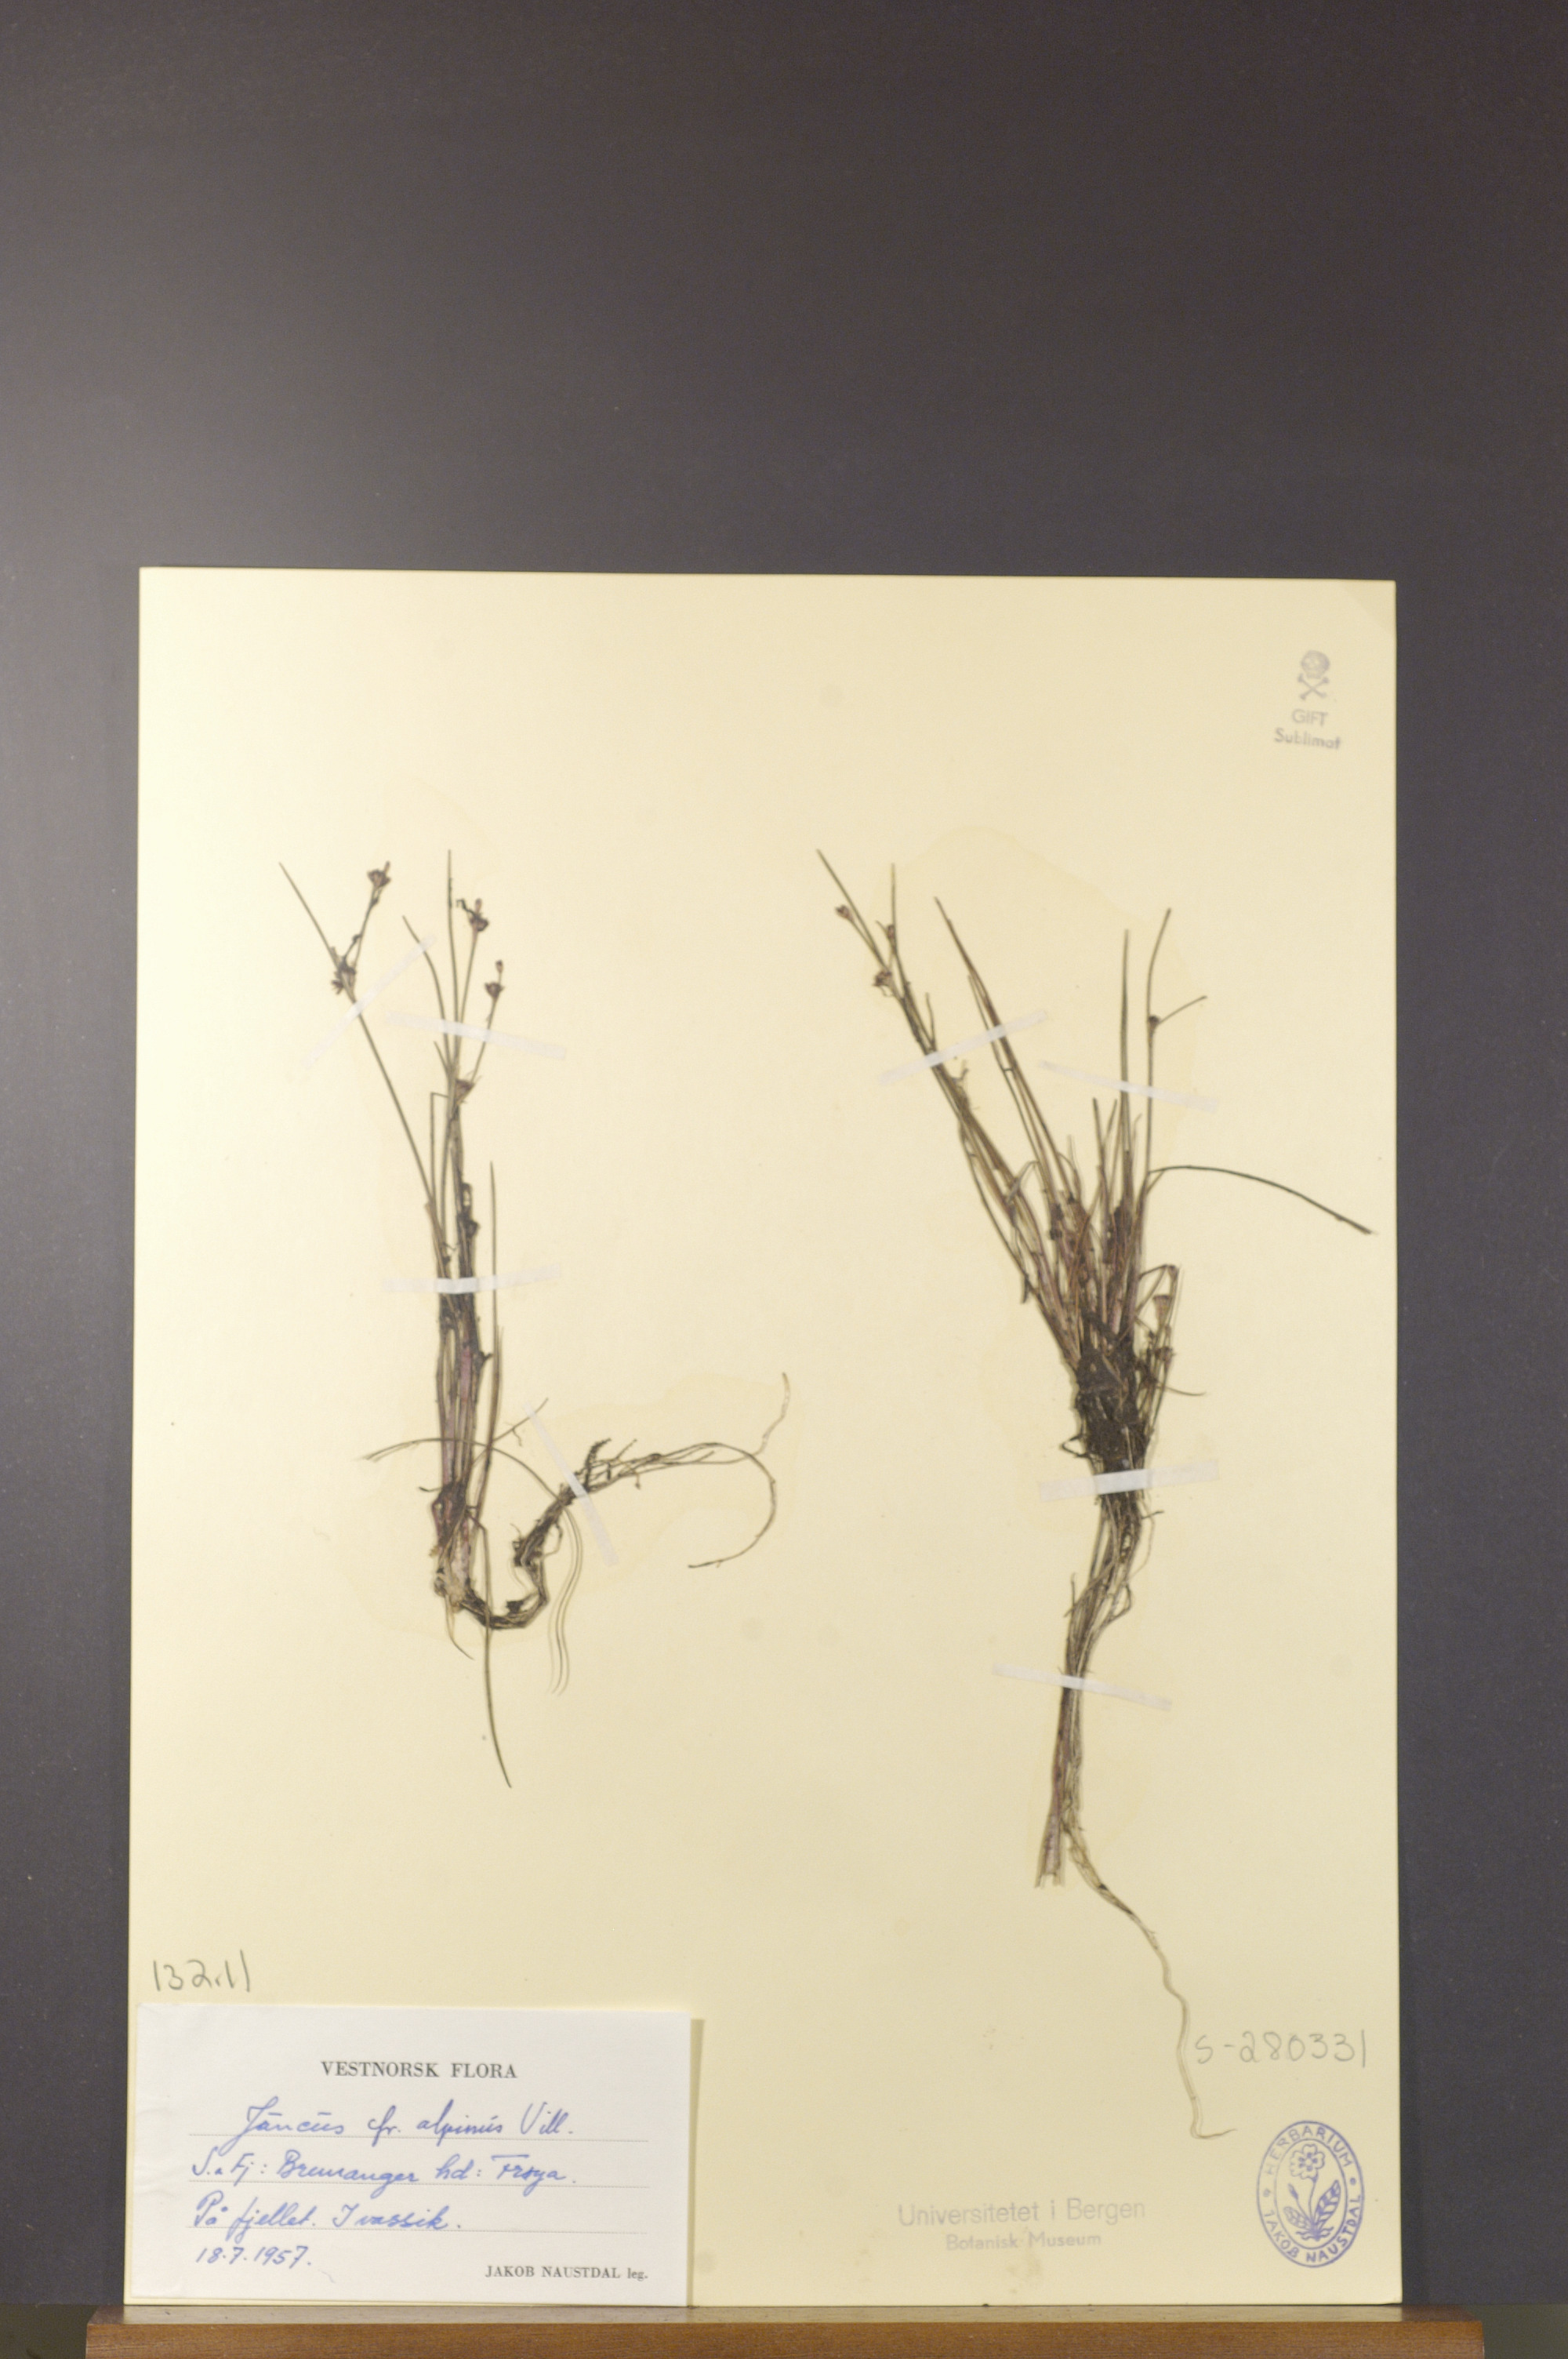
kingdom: Plantae
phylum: Tracheophyta
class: Liliopsida
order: Poales
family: Juncaceae
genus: Juncus
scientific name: Juncus alpinoarticulatus
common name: Alpine rush
